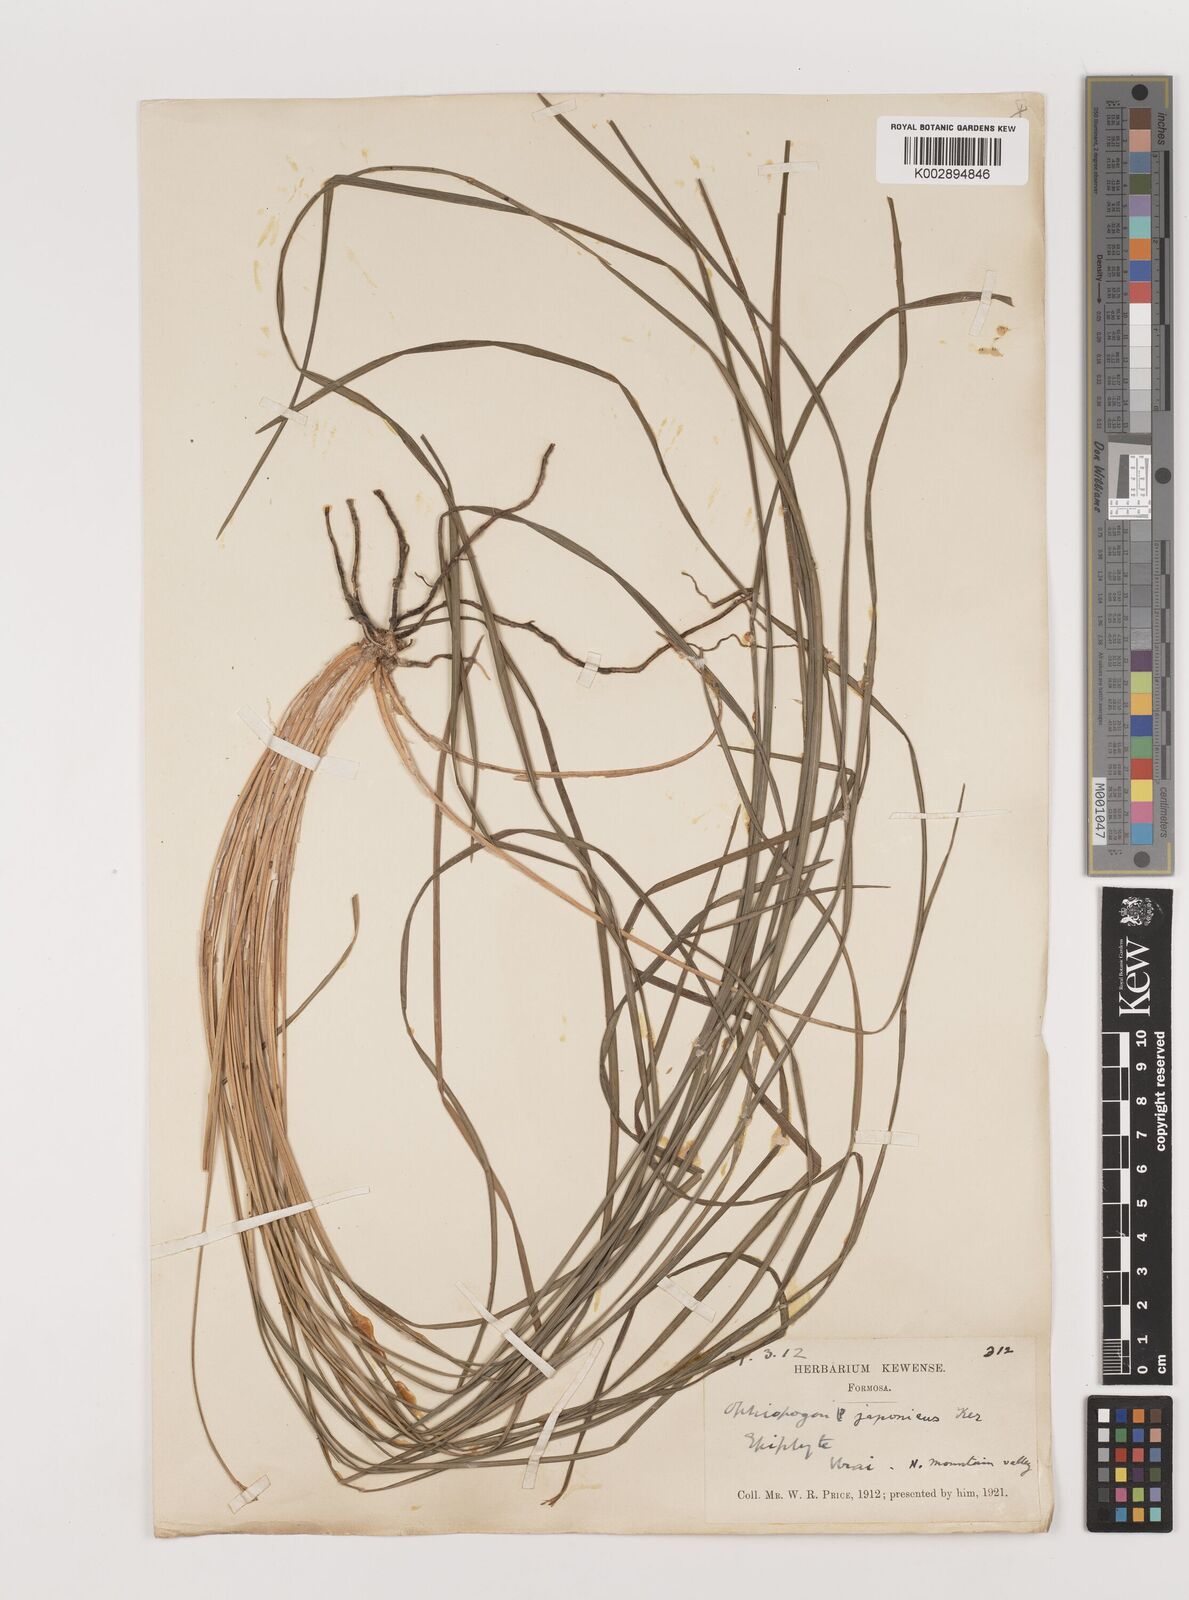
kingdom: Plantae
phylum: Tracheophyta
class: Liliopsida
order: Asparagales
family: Asparagaceae
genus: Ophiopogon
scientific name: Ophiopogon japonicus
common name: Dwarf lilyturf
